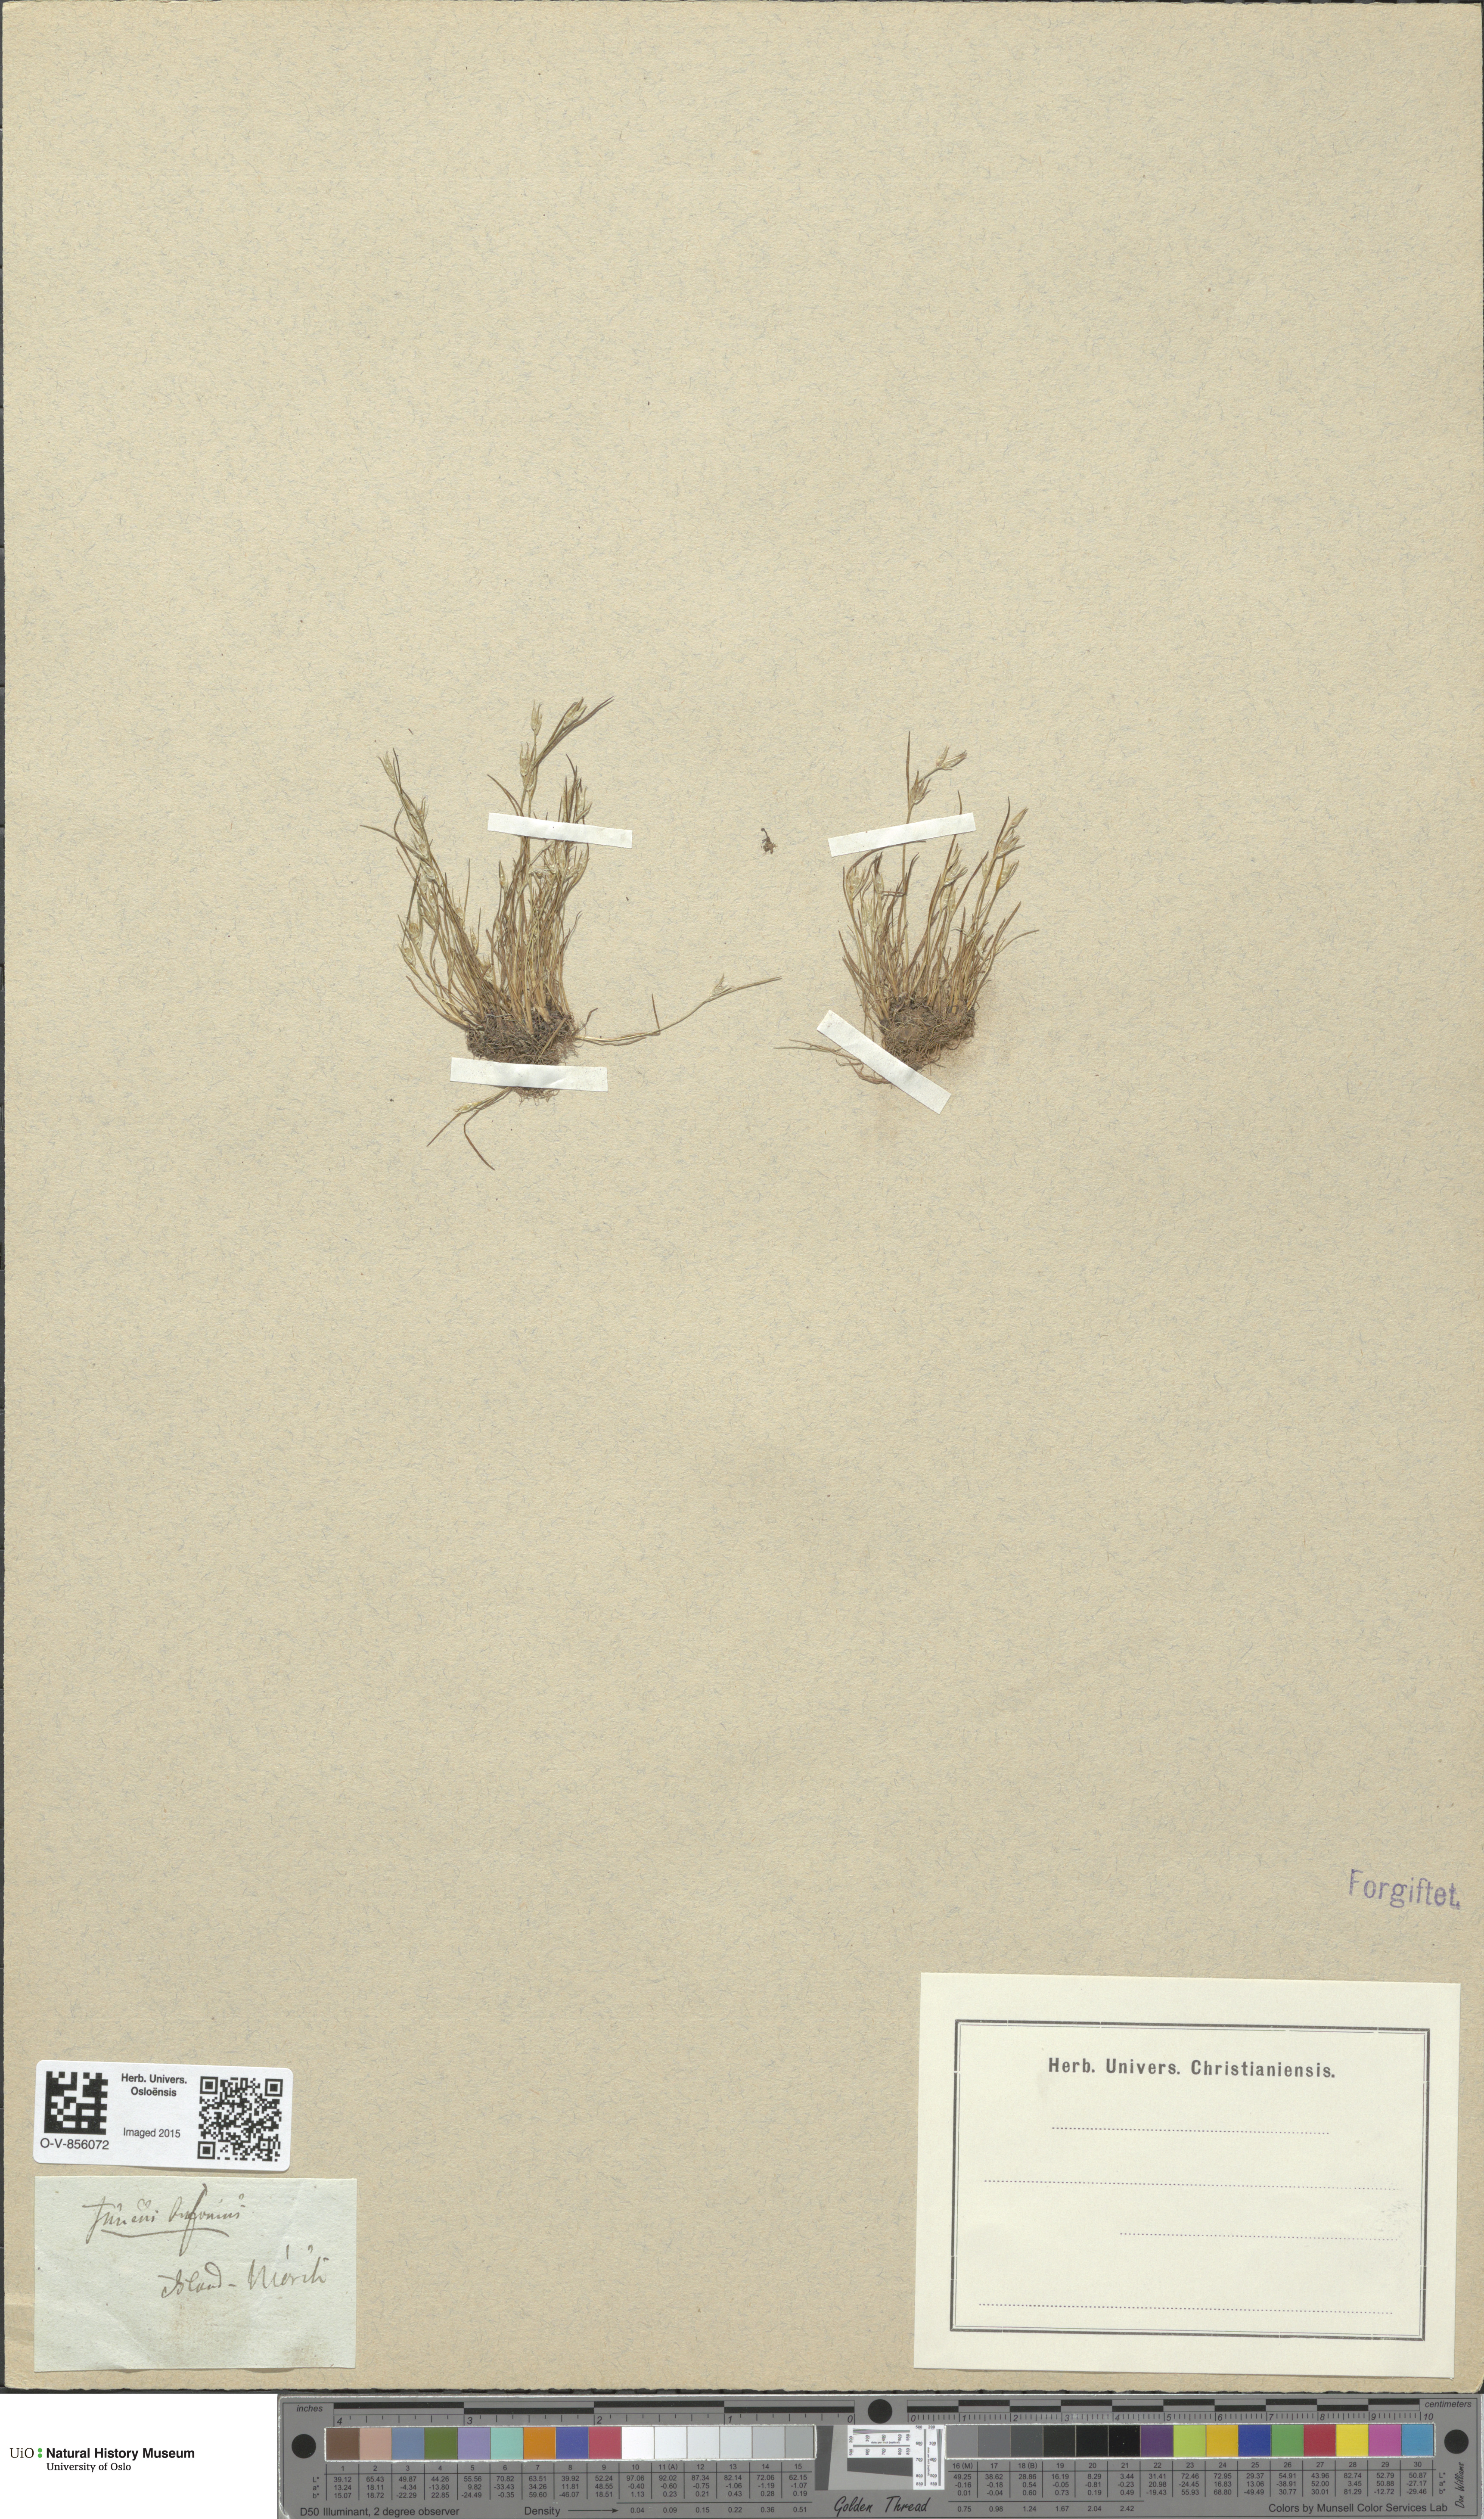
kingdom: Plantae
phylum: Tracheophyta
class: Liliopsida
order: Poales
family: Juncaceae
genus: Juncus
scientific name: Juncus bufonius
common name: Toad rush
